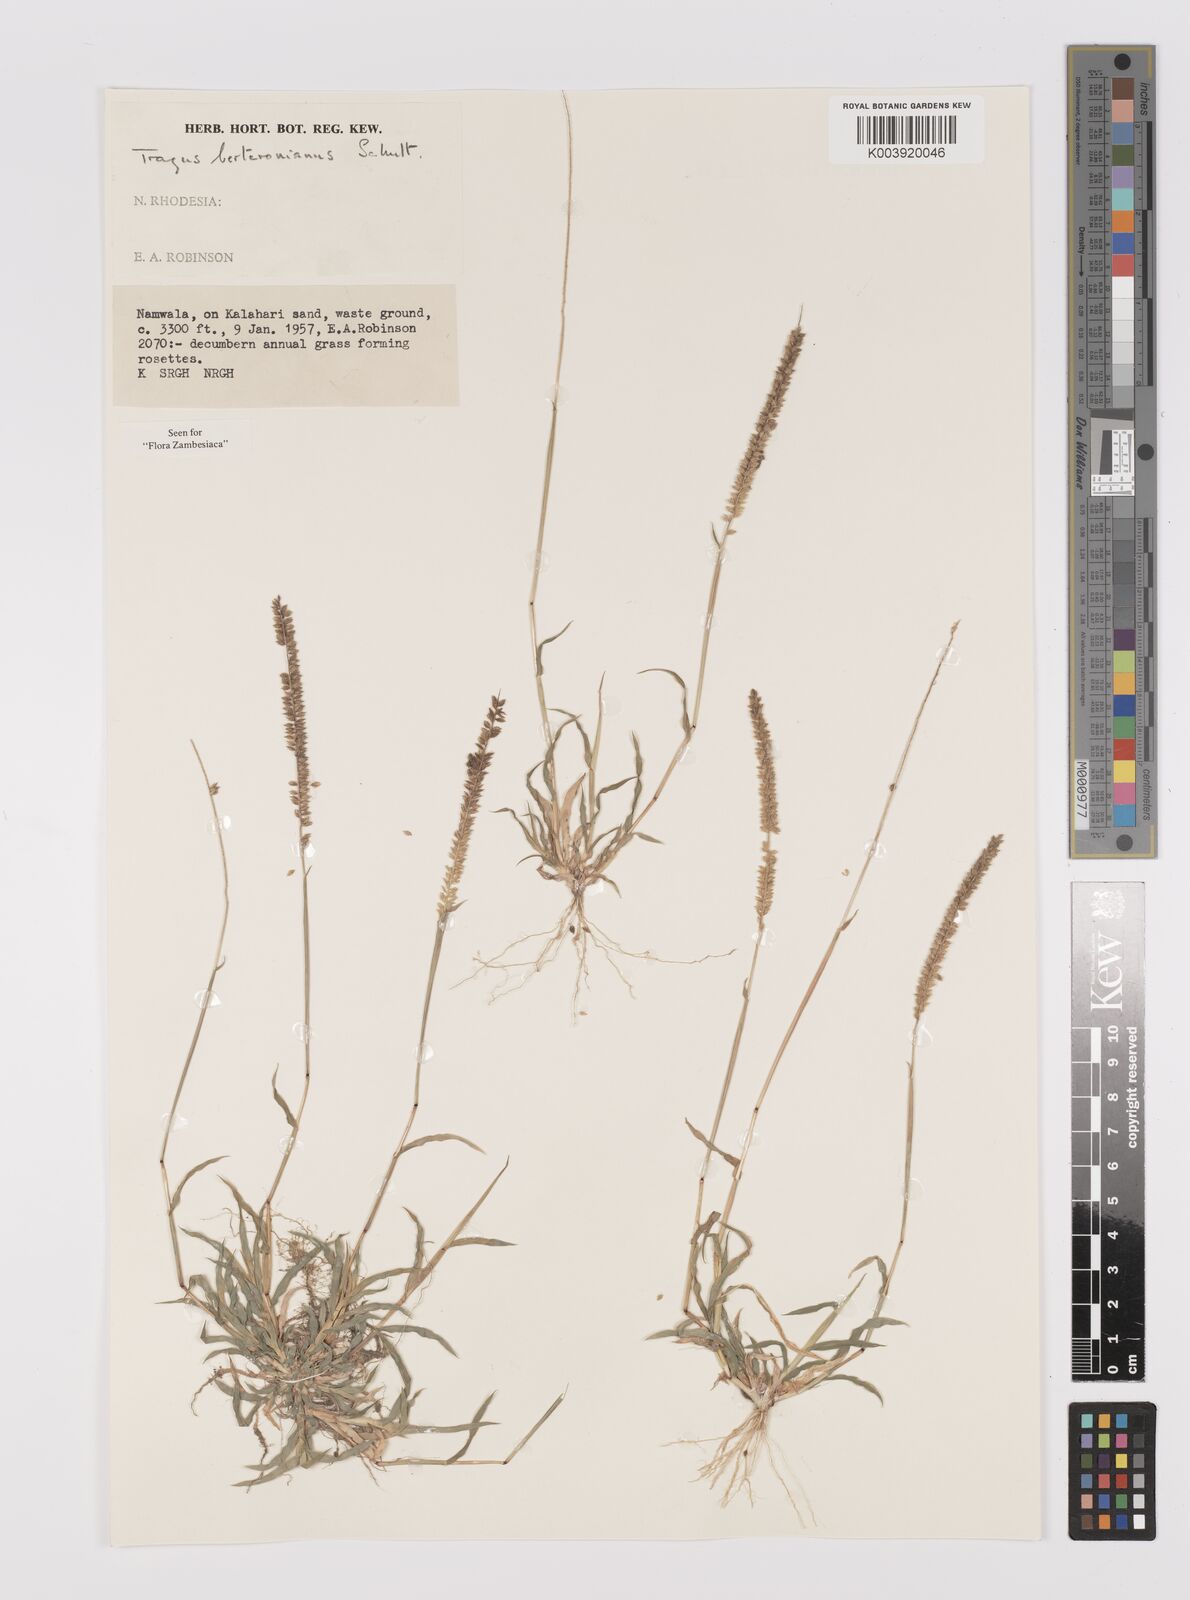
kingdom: Plantae
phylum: Tracheophyta
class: Liliopsida
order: Poales
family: Poaceae
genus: Tragus
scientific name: Tragus berteronianus
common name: African bur-grass
